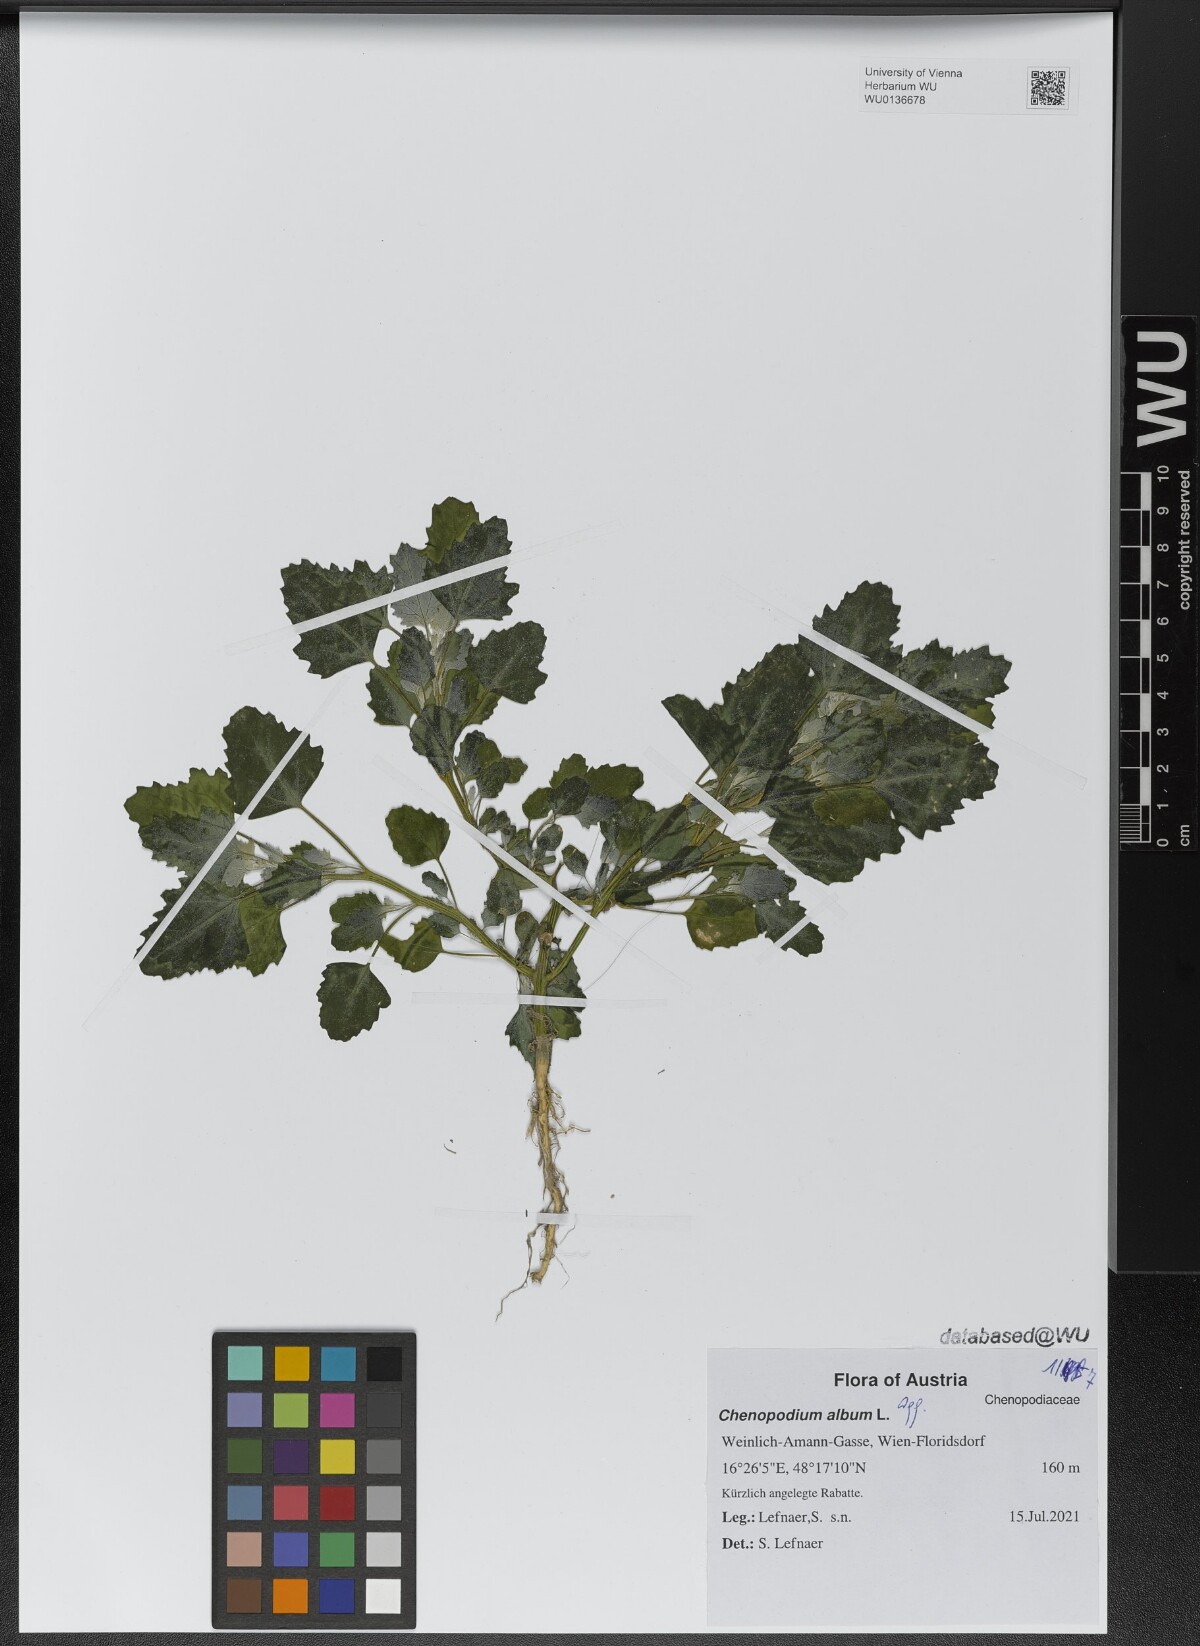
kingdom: Plantae
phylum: Tracheophyta
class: Magnoliopsida
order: Caryophyllales
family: Amaranthaceae
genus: Chenopodium
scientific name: Chenopodium album
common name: Fat-hen
